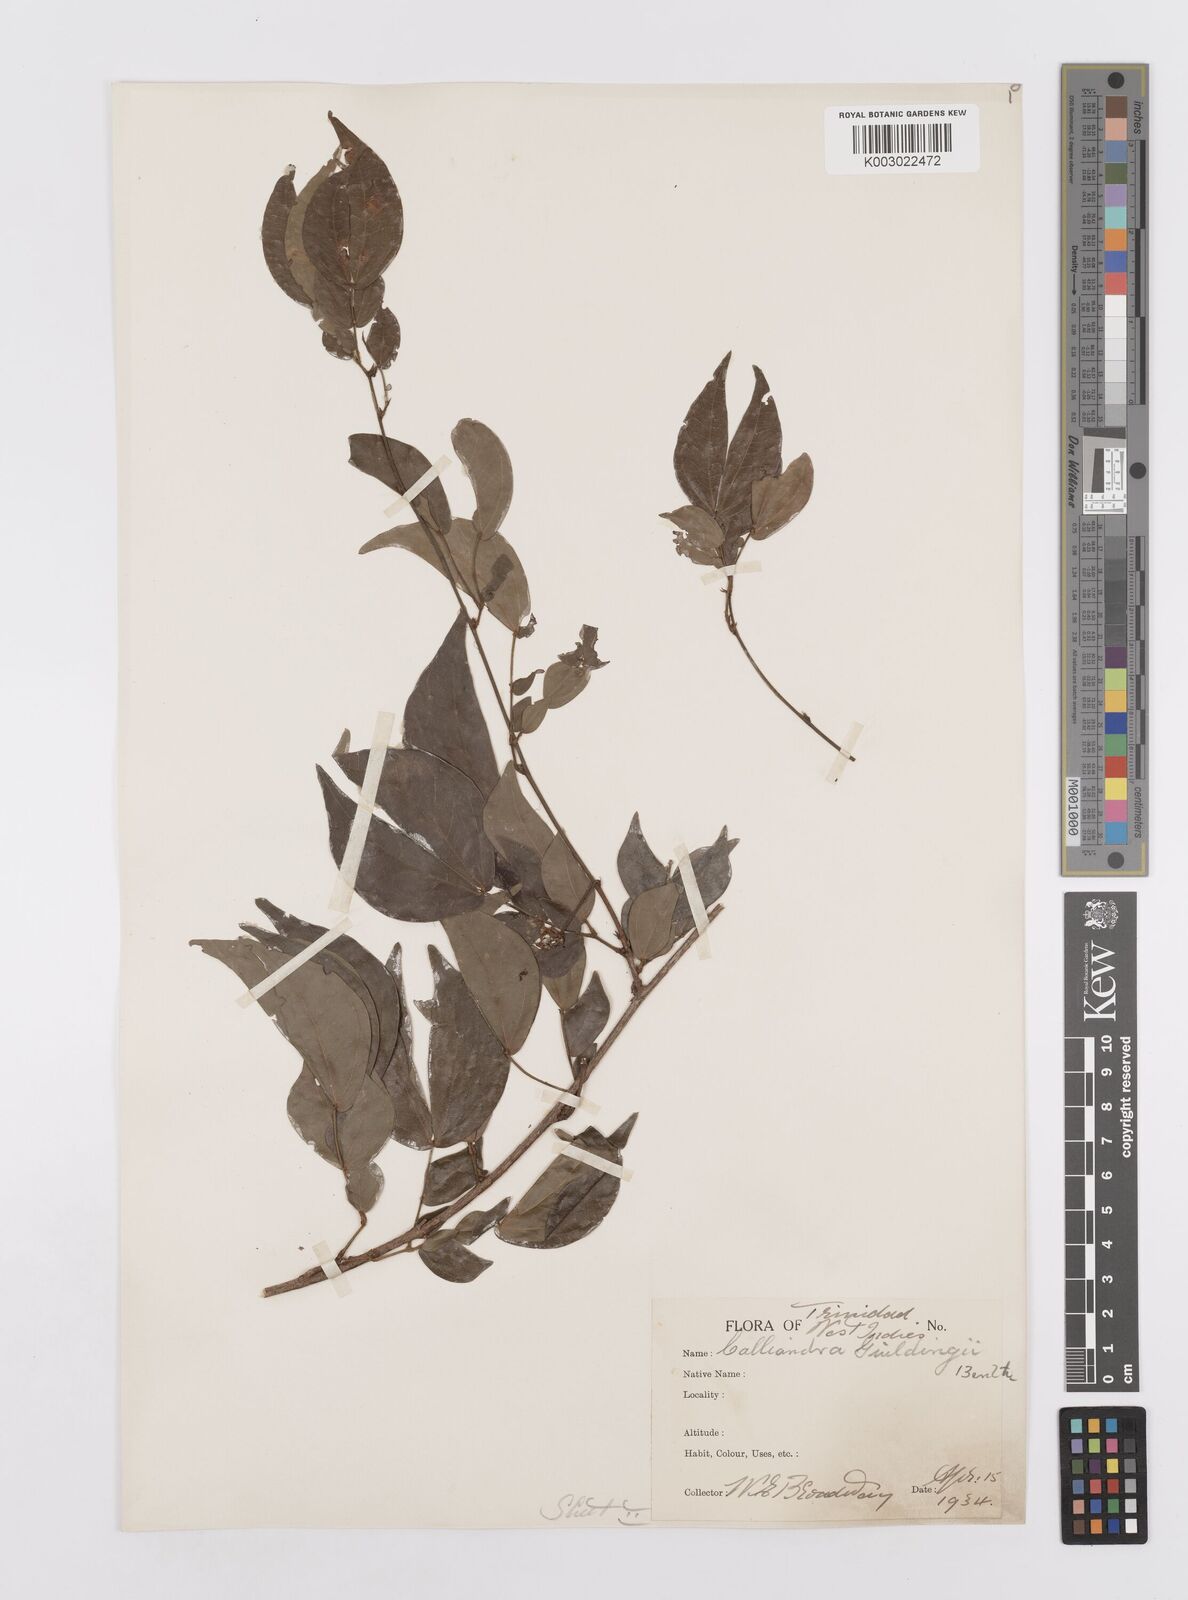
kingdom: Plantae
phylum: Tracheophyta
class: Magnoliopsida
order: Fabales
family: Fabaceae
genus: Calliandra
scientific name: Calliandra guildingii
